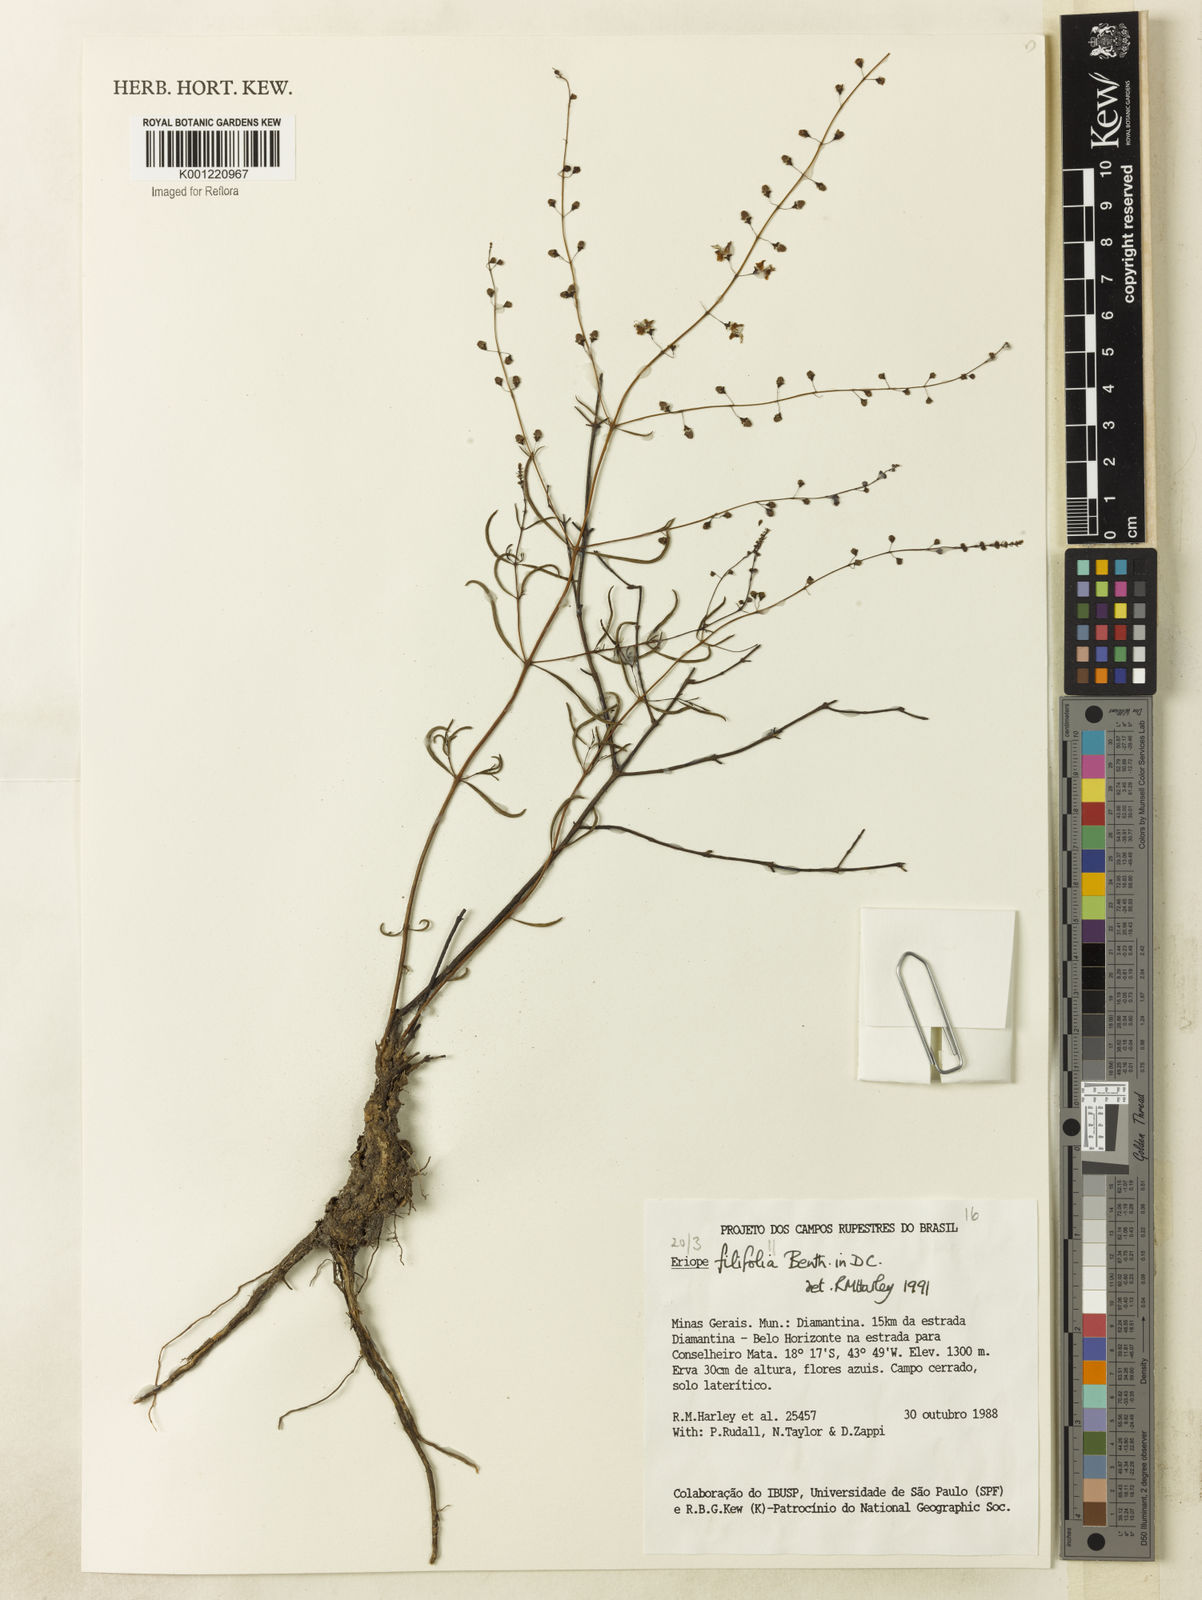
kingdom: Plantae
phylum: Tracheophyta
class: Magnoliopsida
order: Lamiales
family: Lamiaceae
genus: Eriope
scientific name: Eriope filifolia
